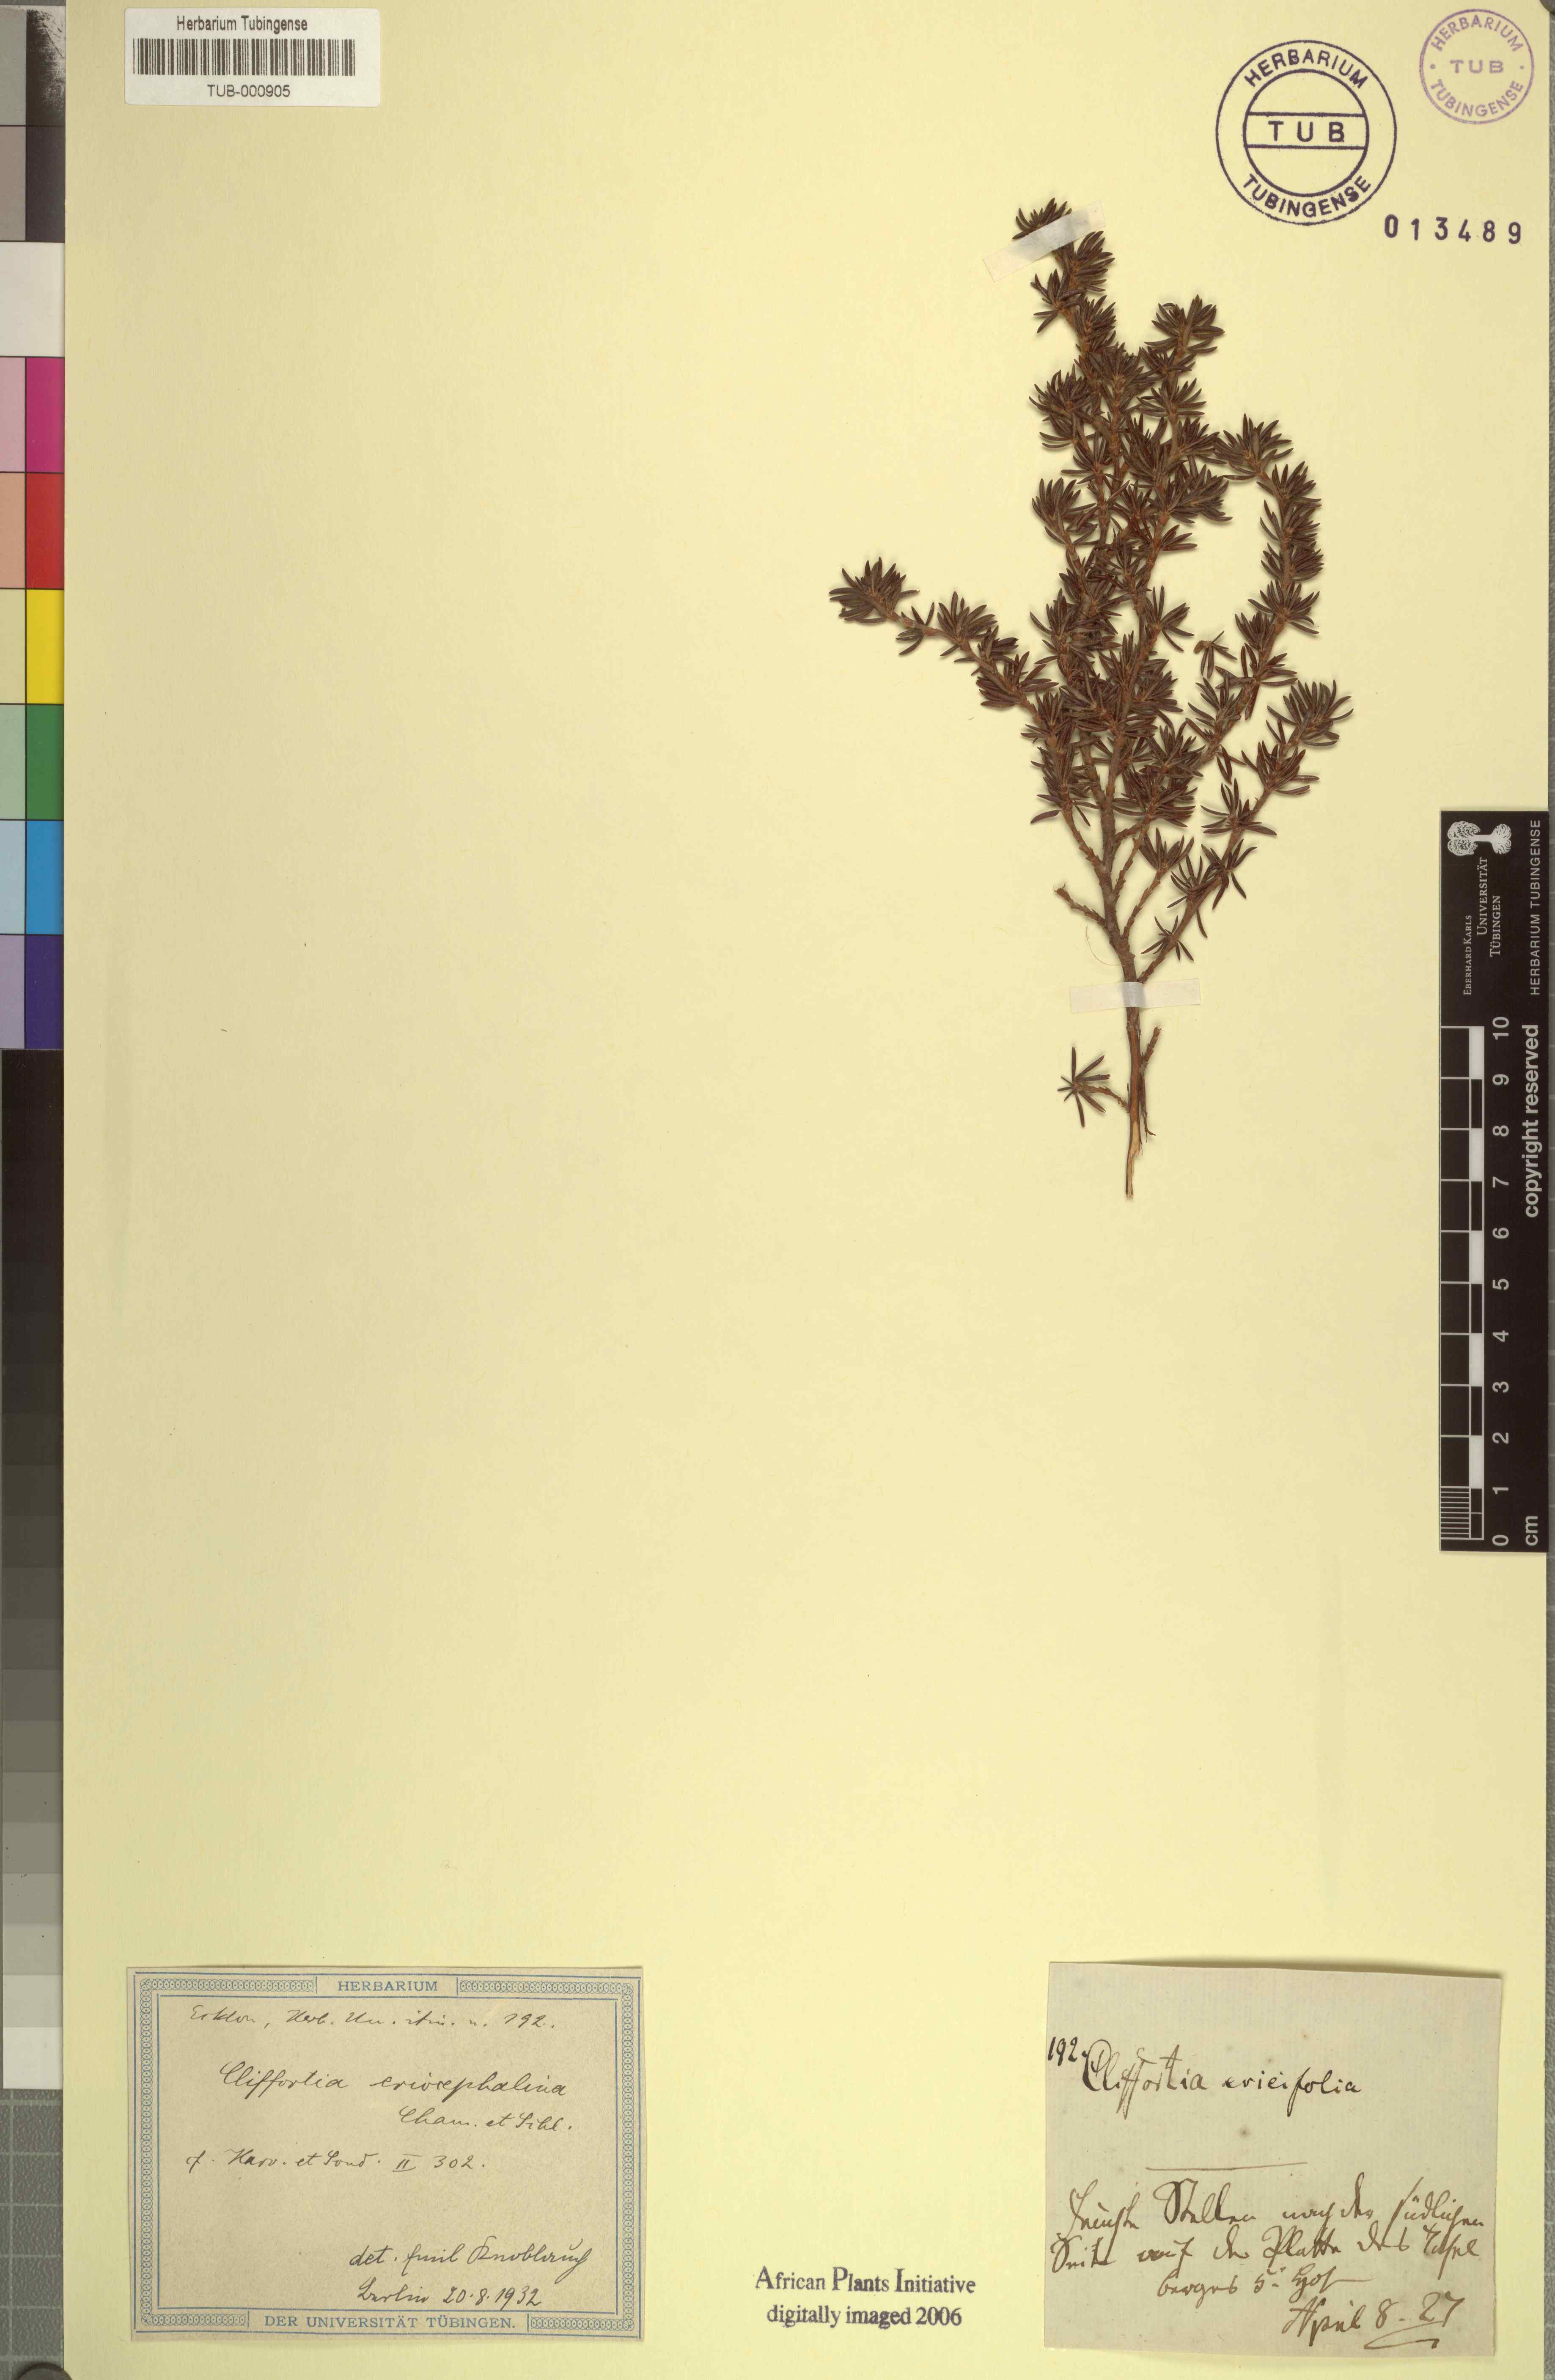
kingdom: Plantae
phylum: Tracheophyta
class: Magnoliopsida
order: Rosales
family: Rosaceae
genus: Cliffortia
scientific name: Cliffortia ericifolia
